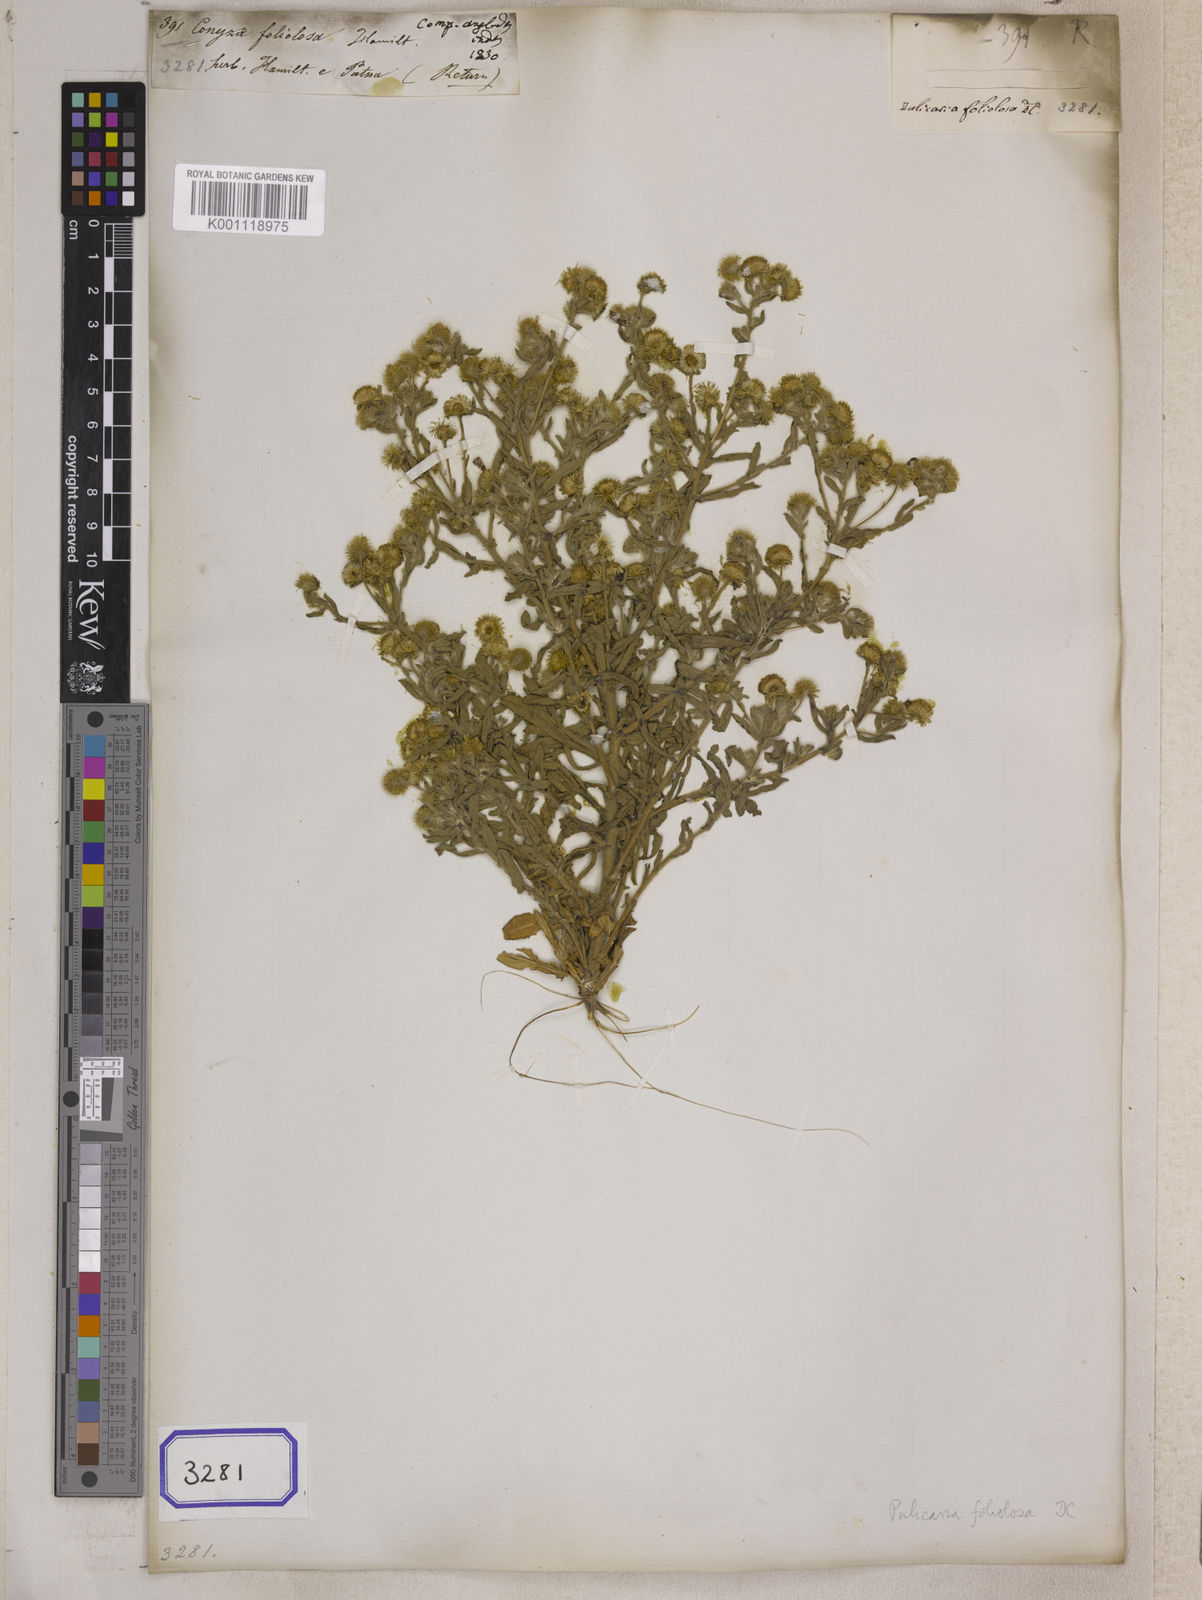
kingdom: Plantae
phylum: Tracheophyta
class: Magnoliopsida
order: Asterales
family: Asteraceae
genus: Pulicaria
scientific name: Pulicaria foliolosa
